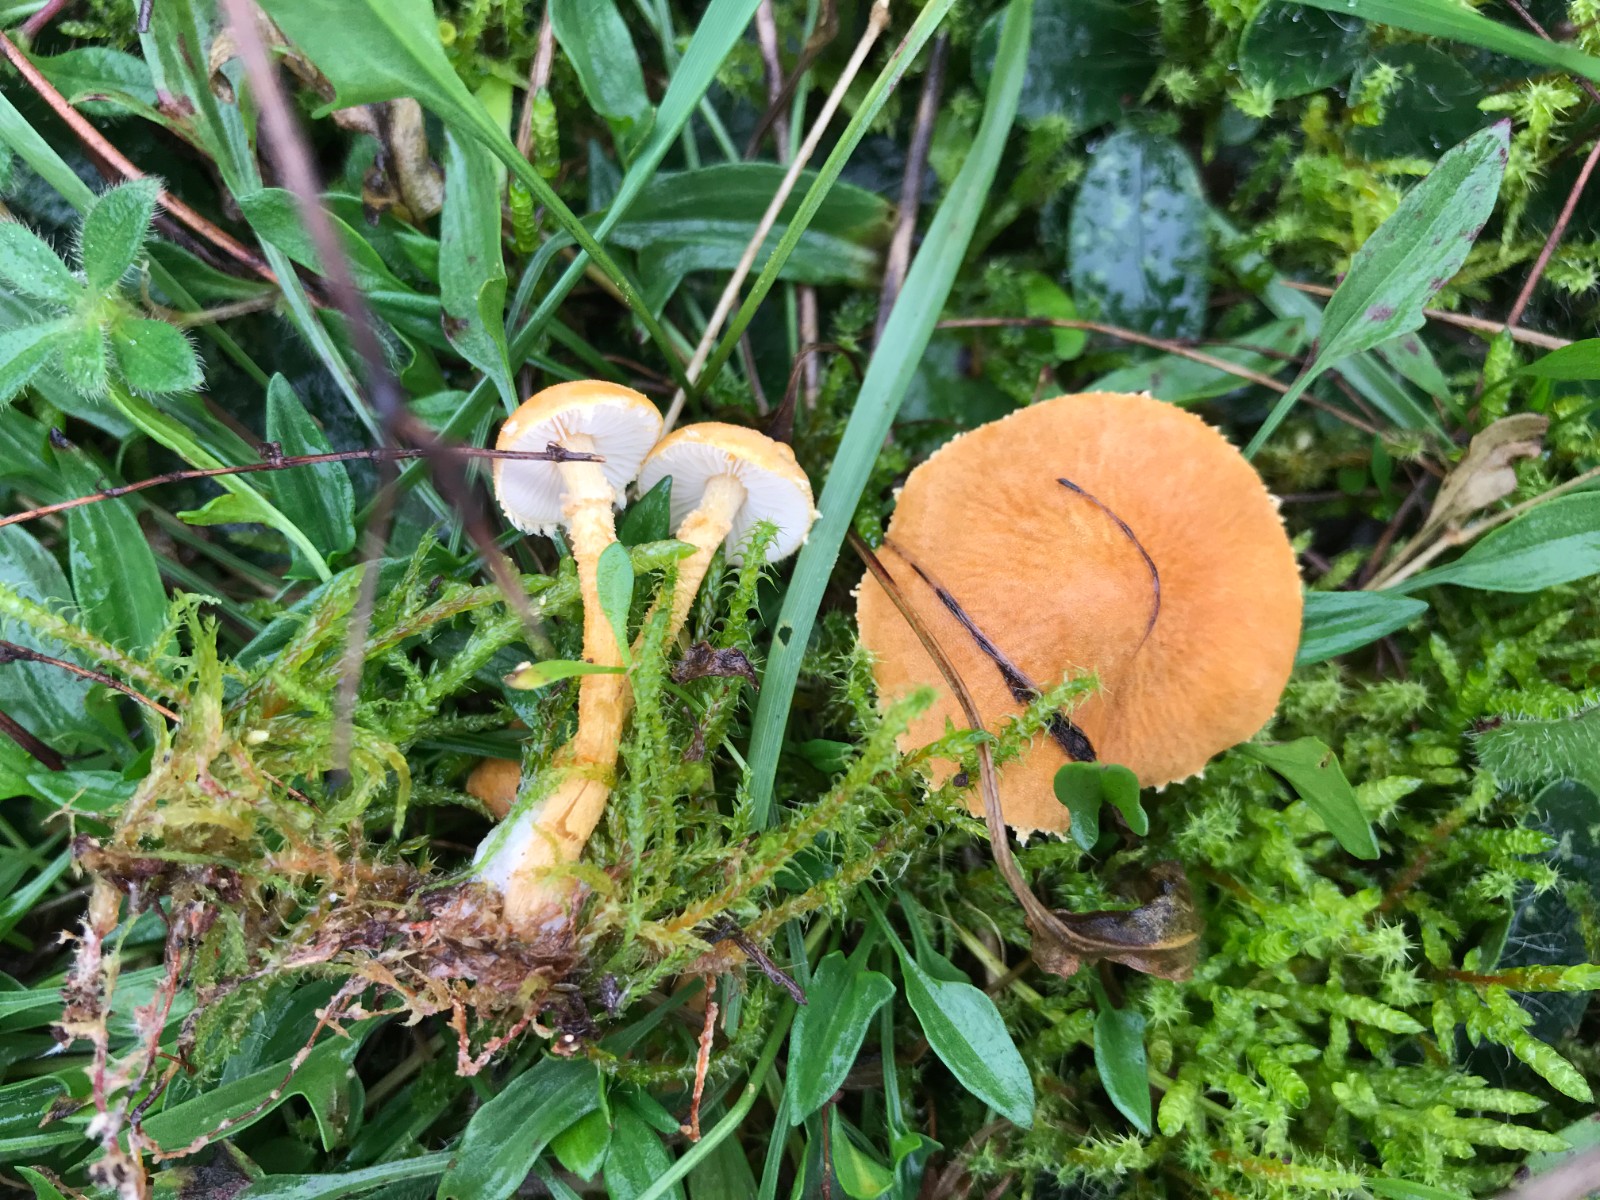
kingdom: Fungi
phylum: Basidiomycota
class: Agaricomycetes
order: Agaricales
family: Tricholomataceae
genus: Cystoderma
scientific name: Cystoderma amianthinum
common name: okkergul grynhat
